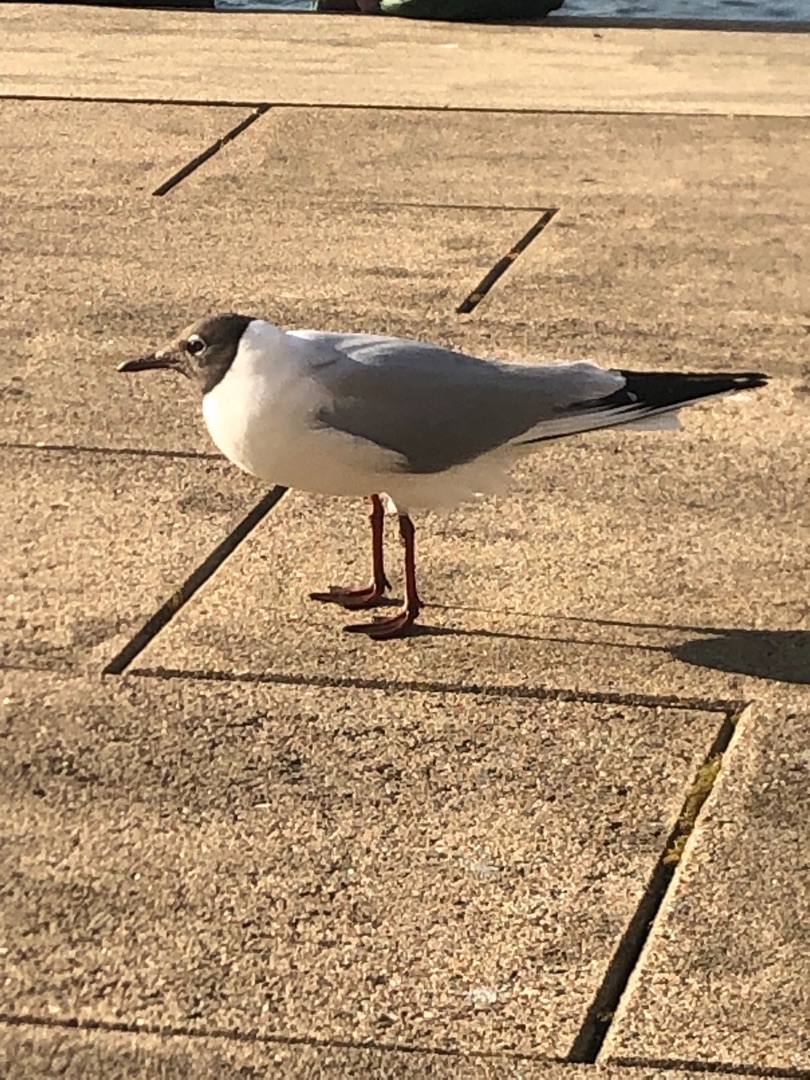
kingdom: Animalia
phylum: Chordata
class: Aves
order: Charadriiformes
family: Laridae
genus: Chroicocephalus
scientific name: Chroicocephalus ridibundus
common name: Hættemåge
